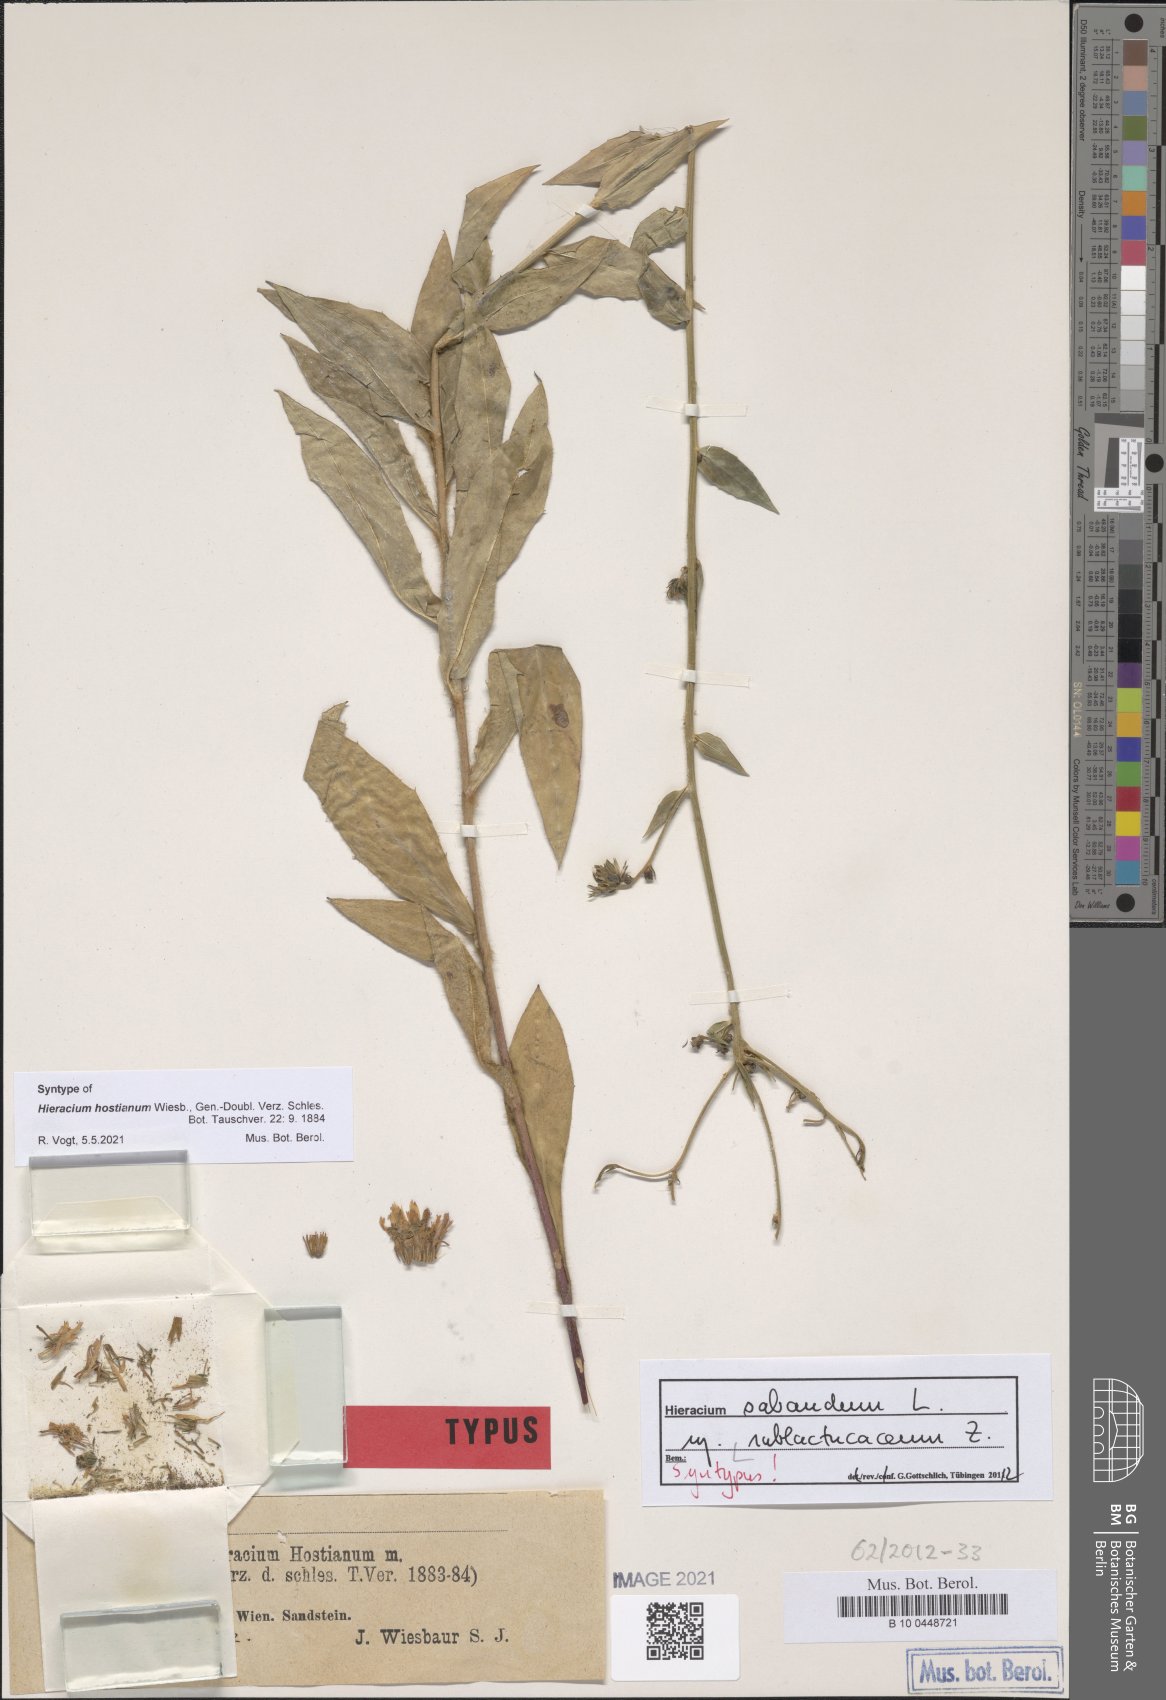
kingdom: Plantae
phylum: Tracheophyta
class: Magnoliopsida
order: Asterales
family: Asteraceae
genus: Hieracium
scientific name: Hieracium sabaudum
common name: New england hawkweed
